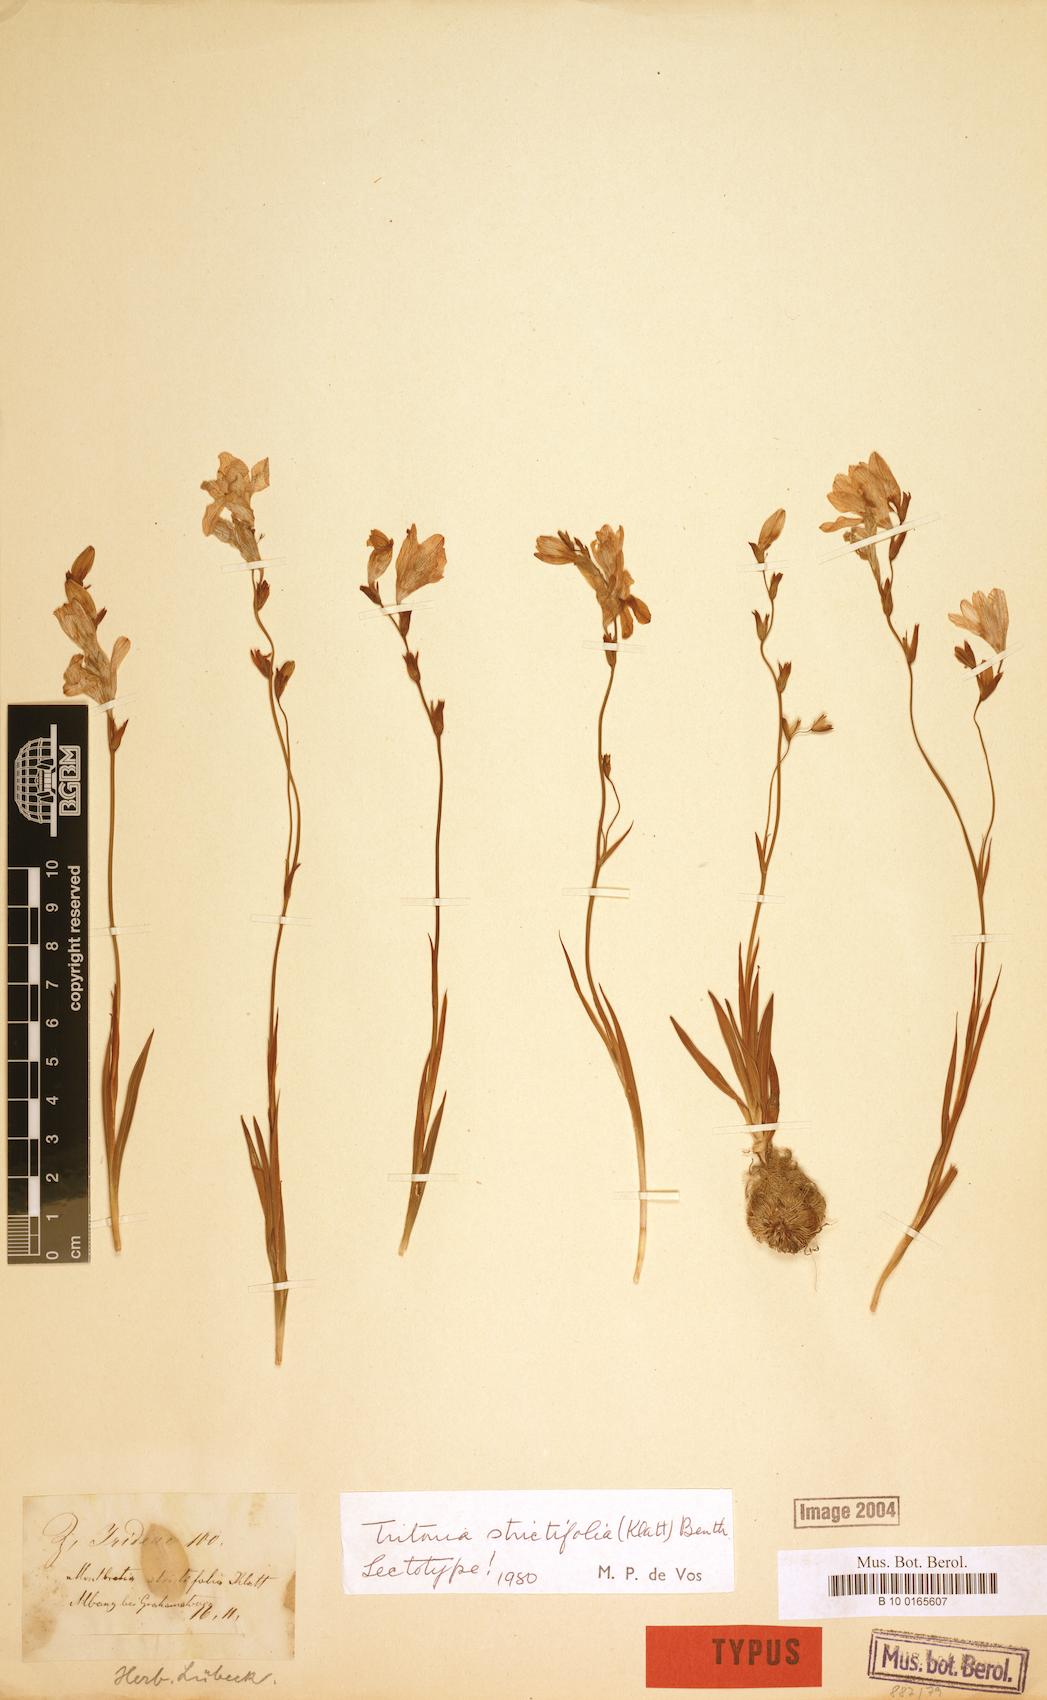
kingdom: Plantae
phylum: Tracheophyta
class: Liliopsida
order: Asparagales
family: Iridaceae
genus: Tritonia
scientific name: Tritonia strictifolia
